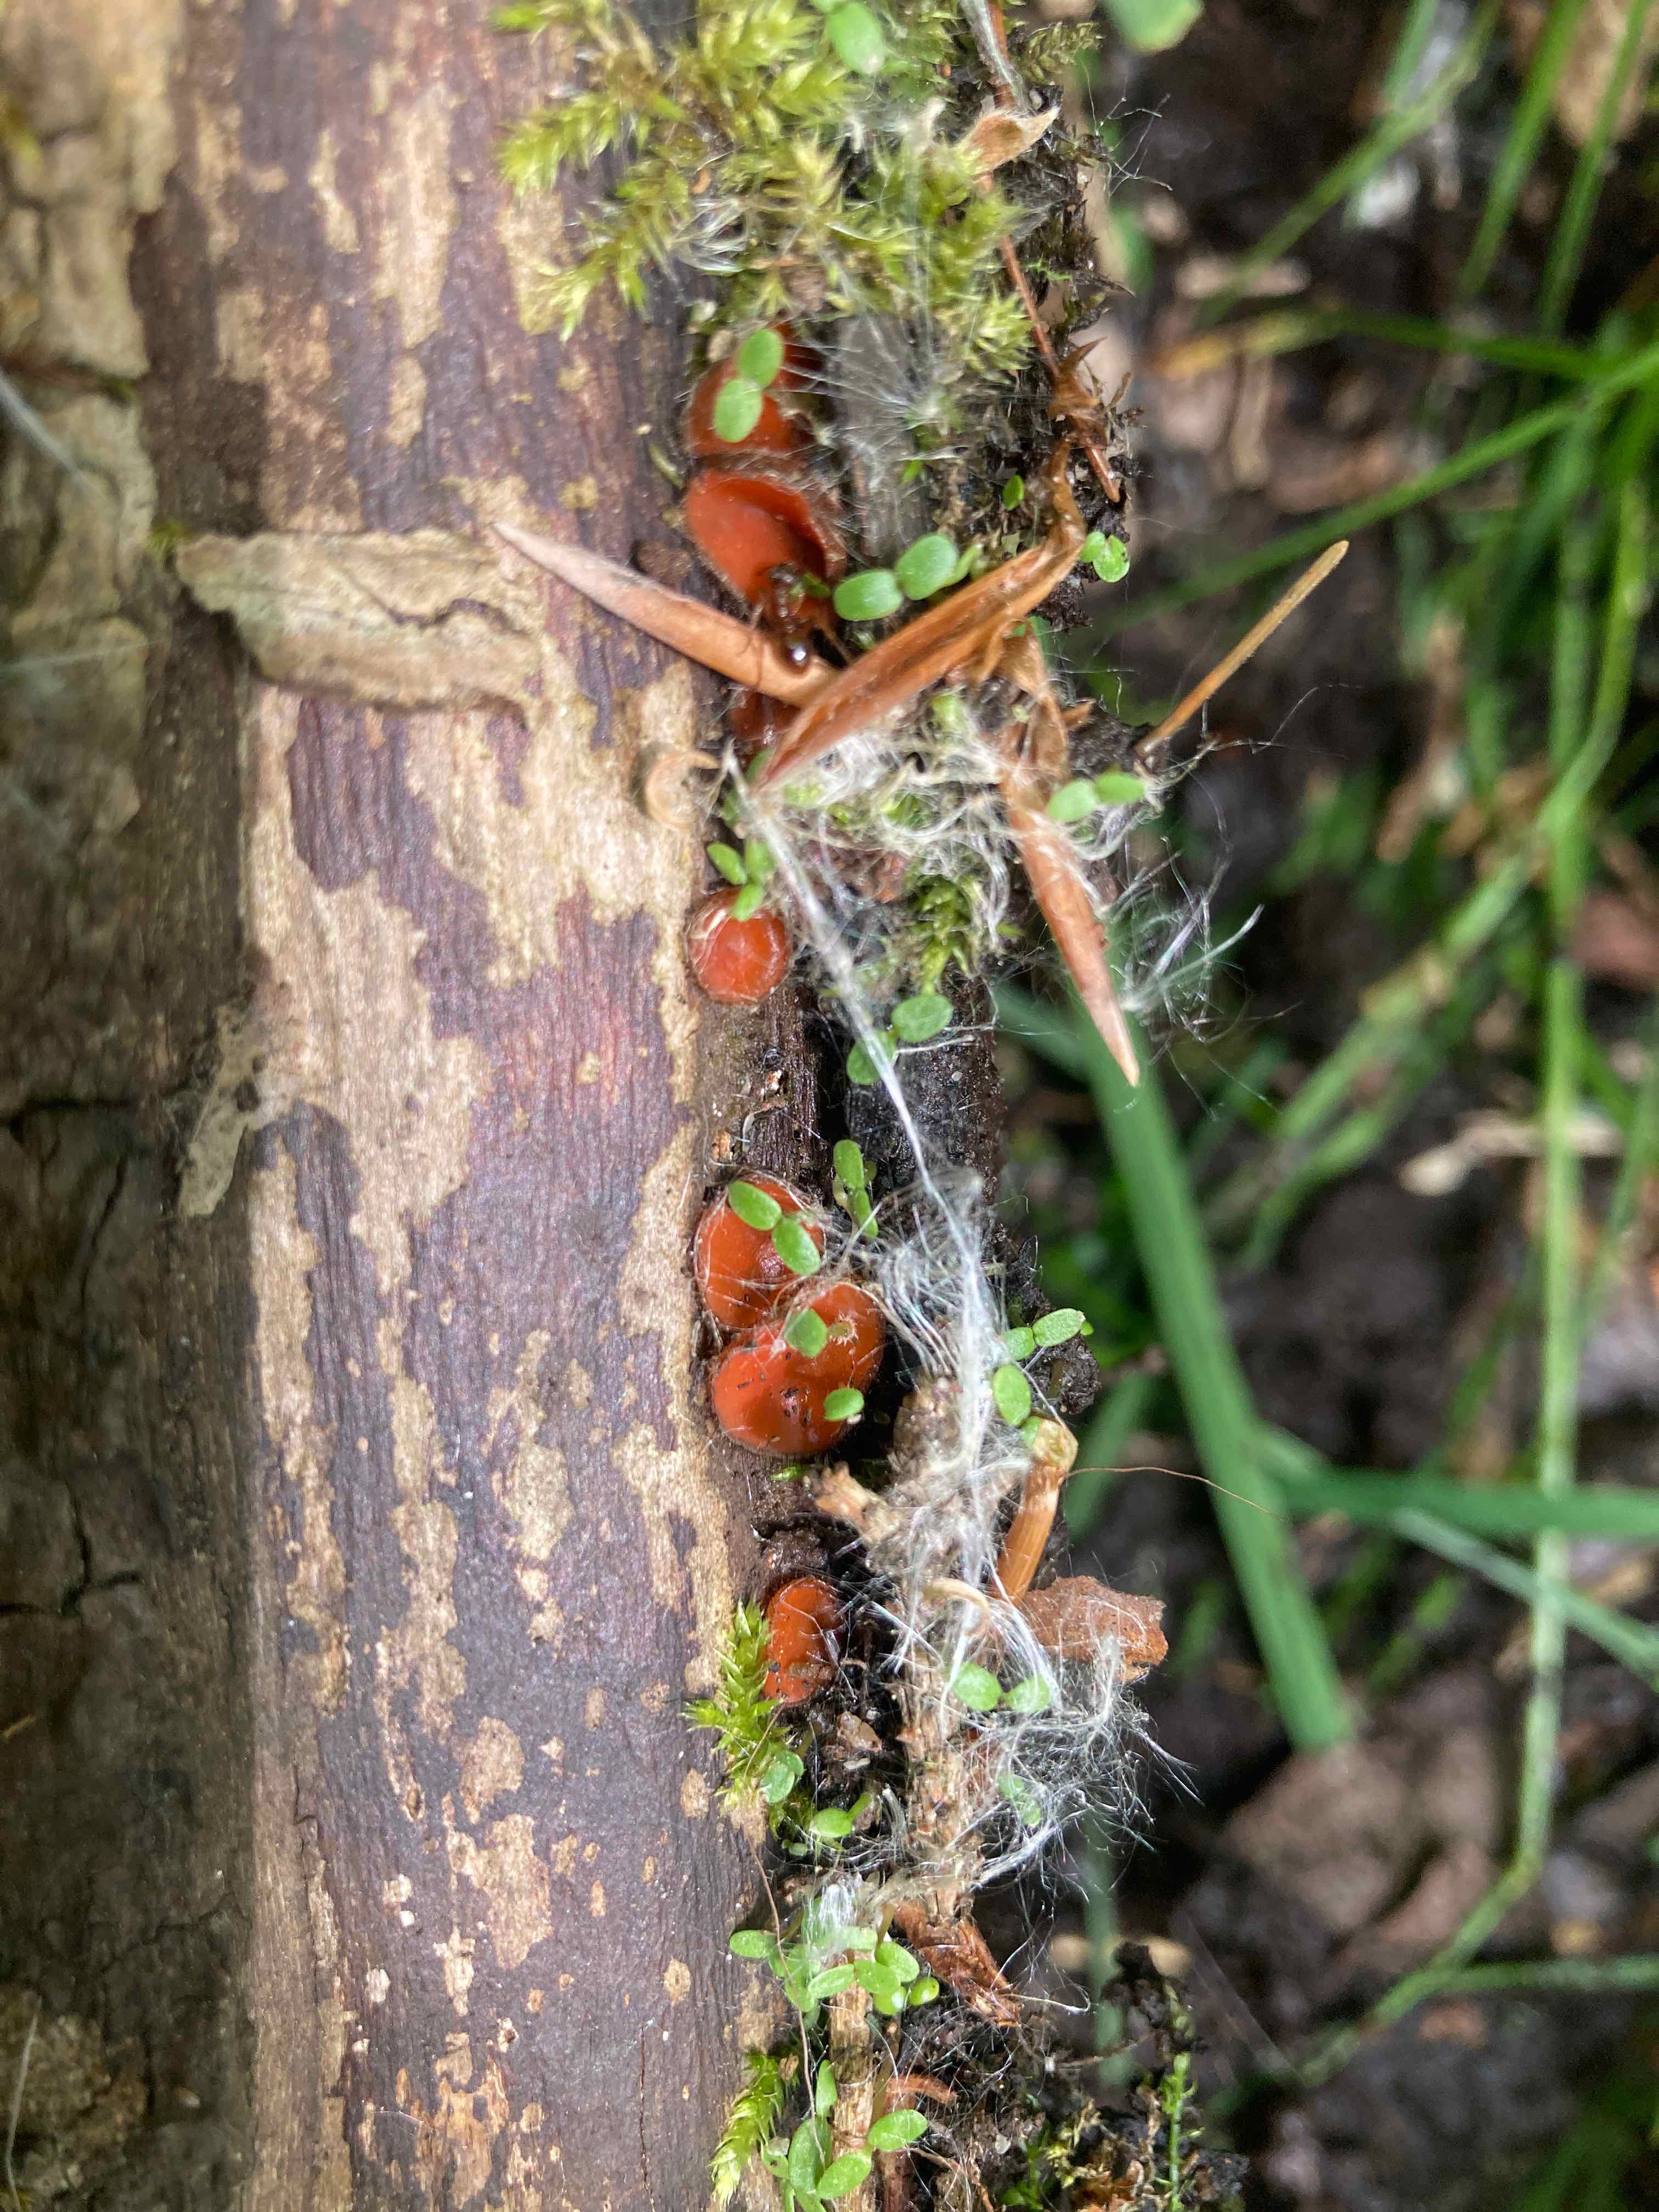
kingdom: Fungi
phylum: Ascomycota
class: Pezizomycetes
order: Pezizales
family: Pyronemataceae
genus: Scutellinia
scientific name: Scutellinia scutellata
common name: frynset skjoldbæger
